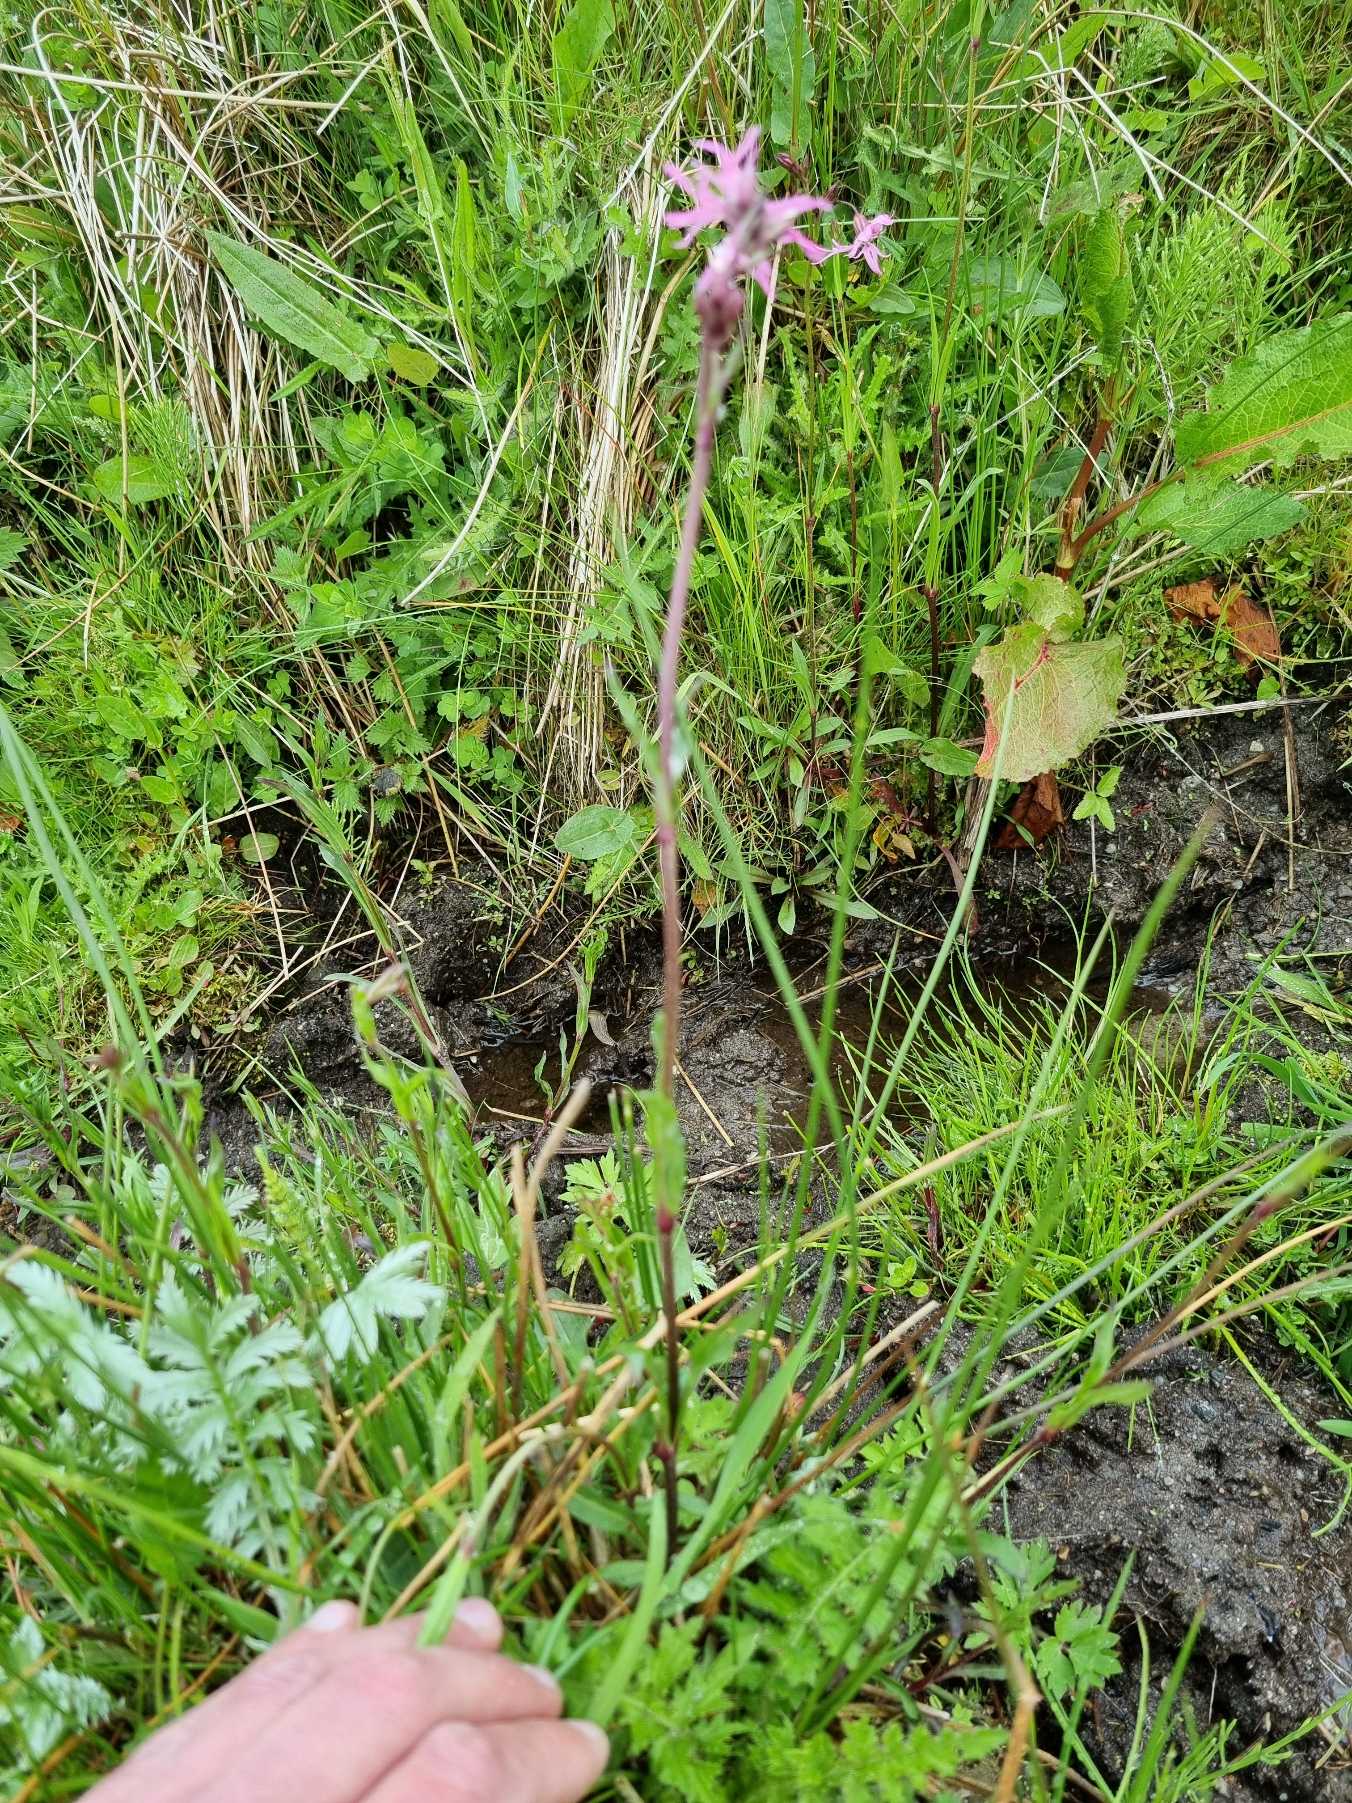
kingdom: Plantae
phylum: Tracheophyta
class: Magnoliopsida
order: Caryophyllales
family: Caryophyllaceae
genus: Silene
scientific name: Silene flos-cuculi
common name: Trævlekrone
